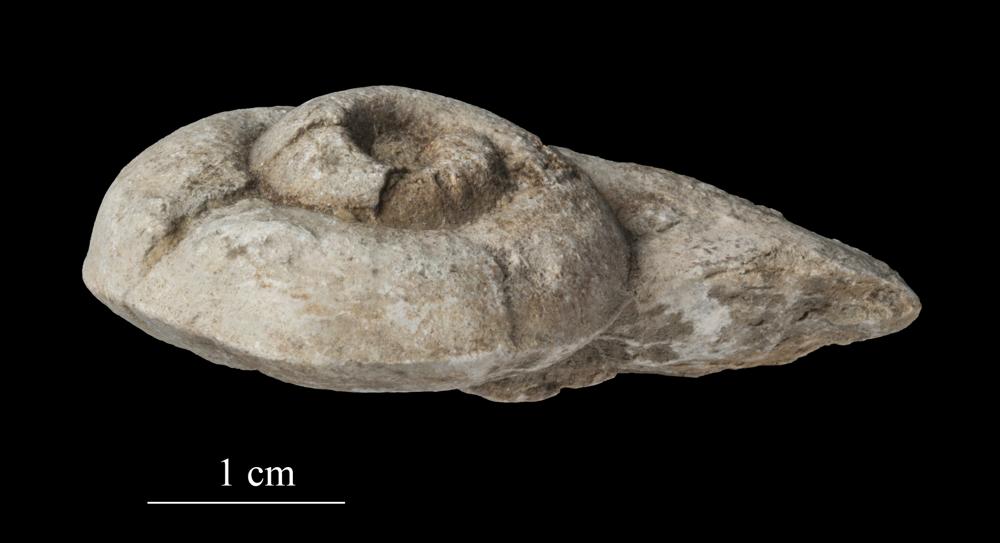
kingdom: Animalia
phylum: Mollusca
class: Gastropoda
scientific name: Gastropoda
